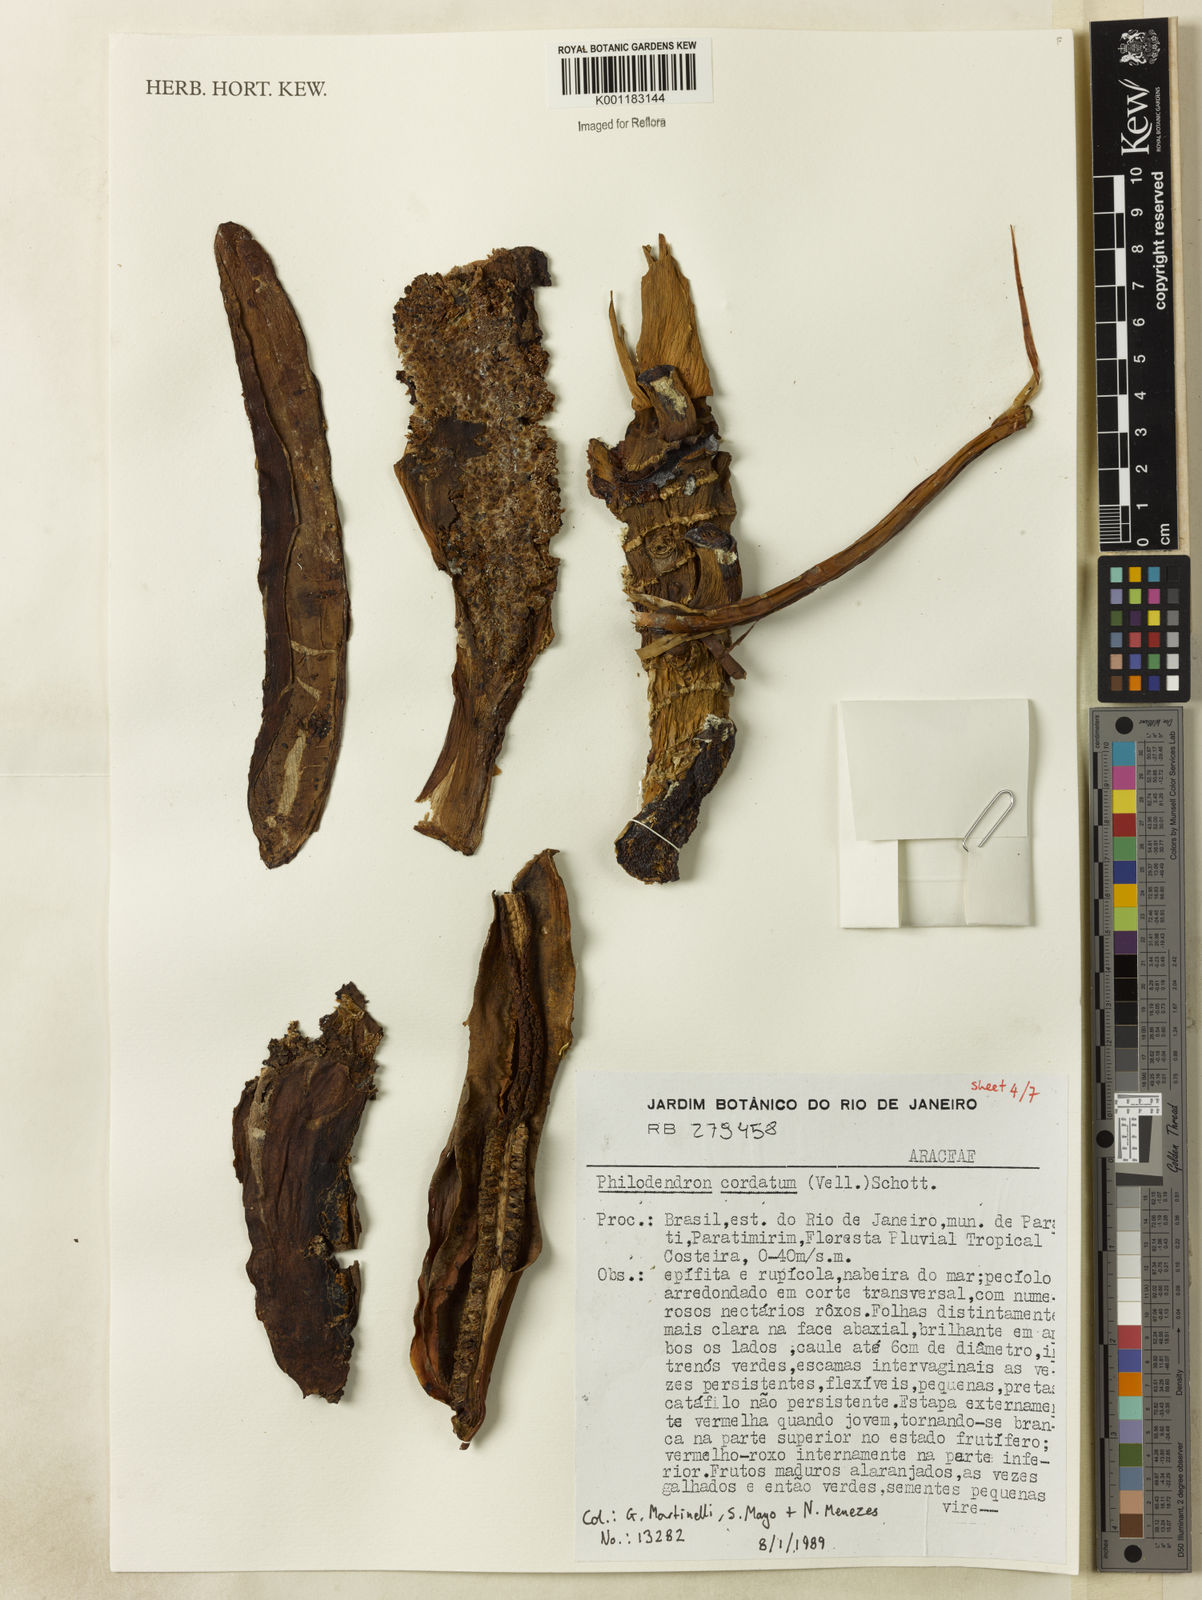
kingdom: Plantae
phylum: Tracheophyta
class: Liliopsida
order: Alismatales
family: Araceae
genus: Philodendron
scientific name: Philodendron cordatum
